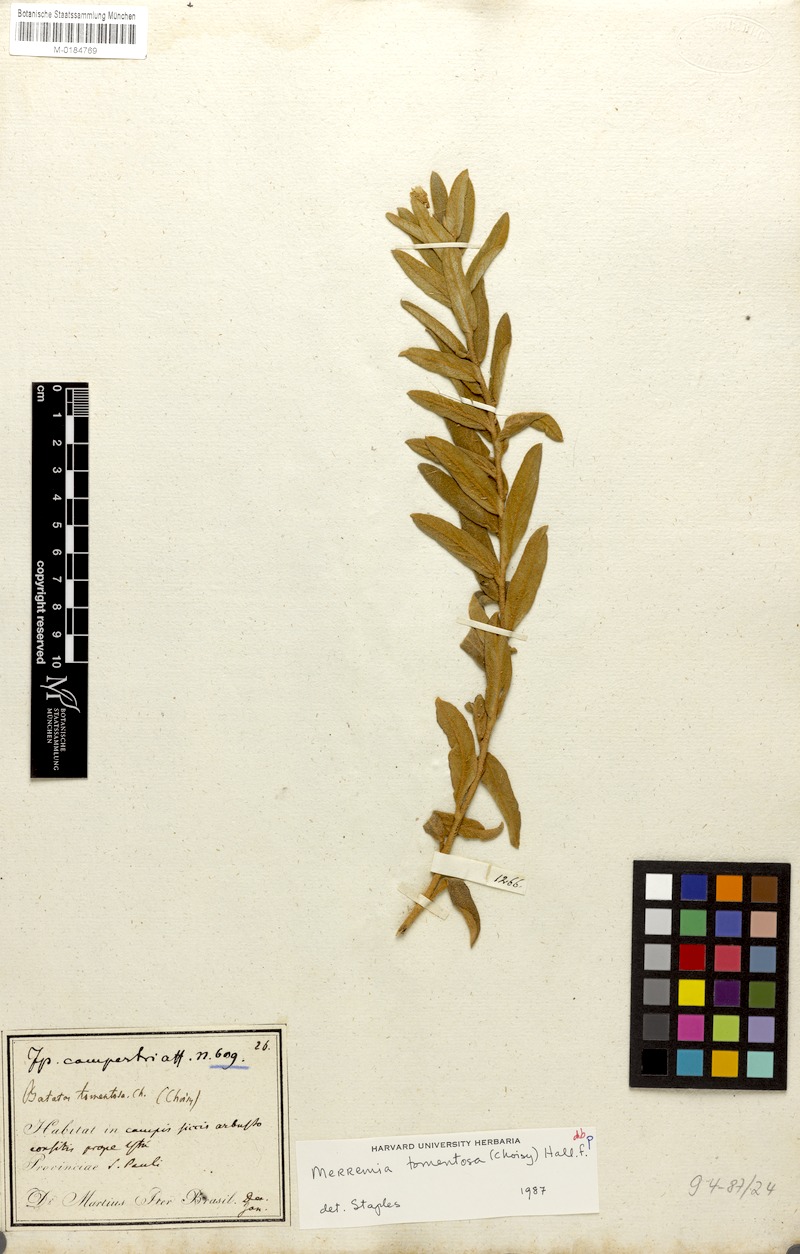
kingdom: Plantae
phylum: Tracheophyta
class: Magnoliopsida
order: Solanales
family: Convolvulaceae
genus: Distimake
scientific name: Distimake tomentosus
